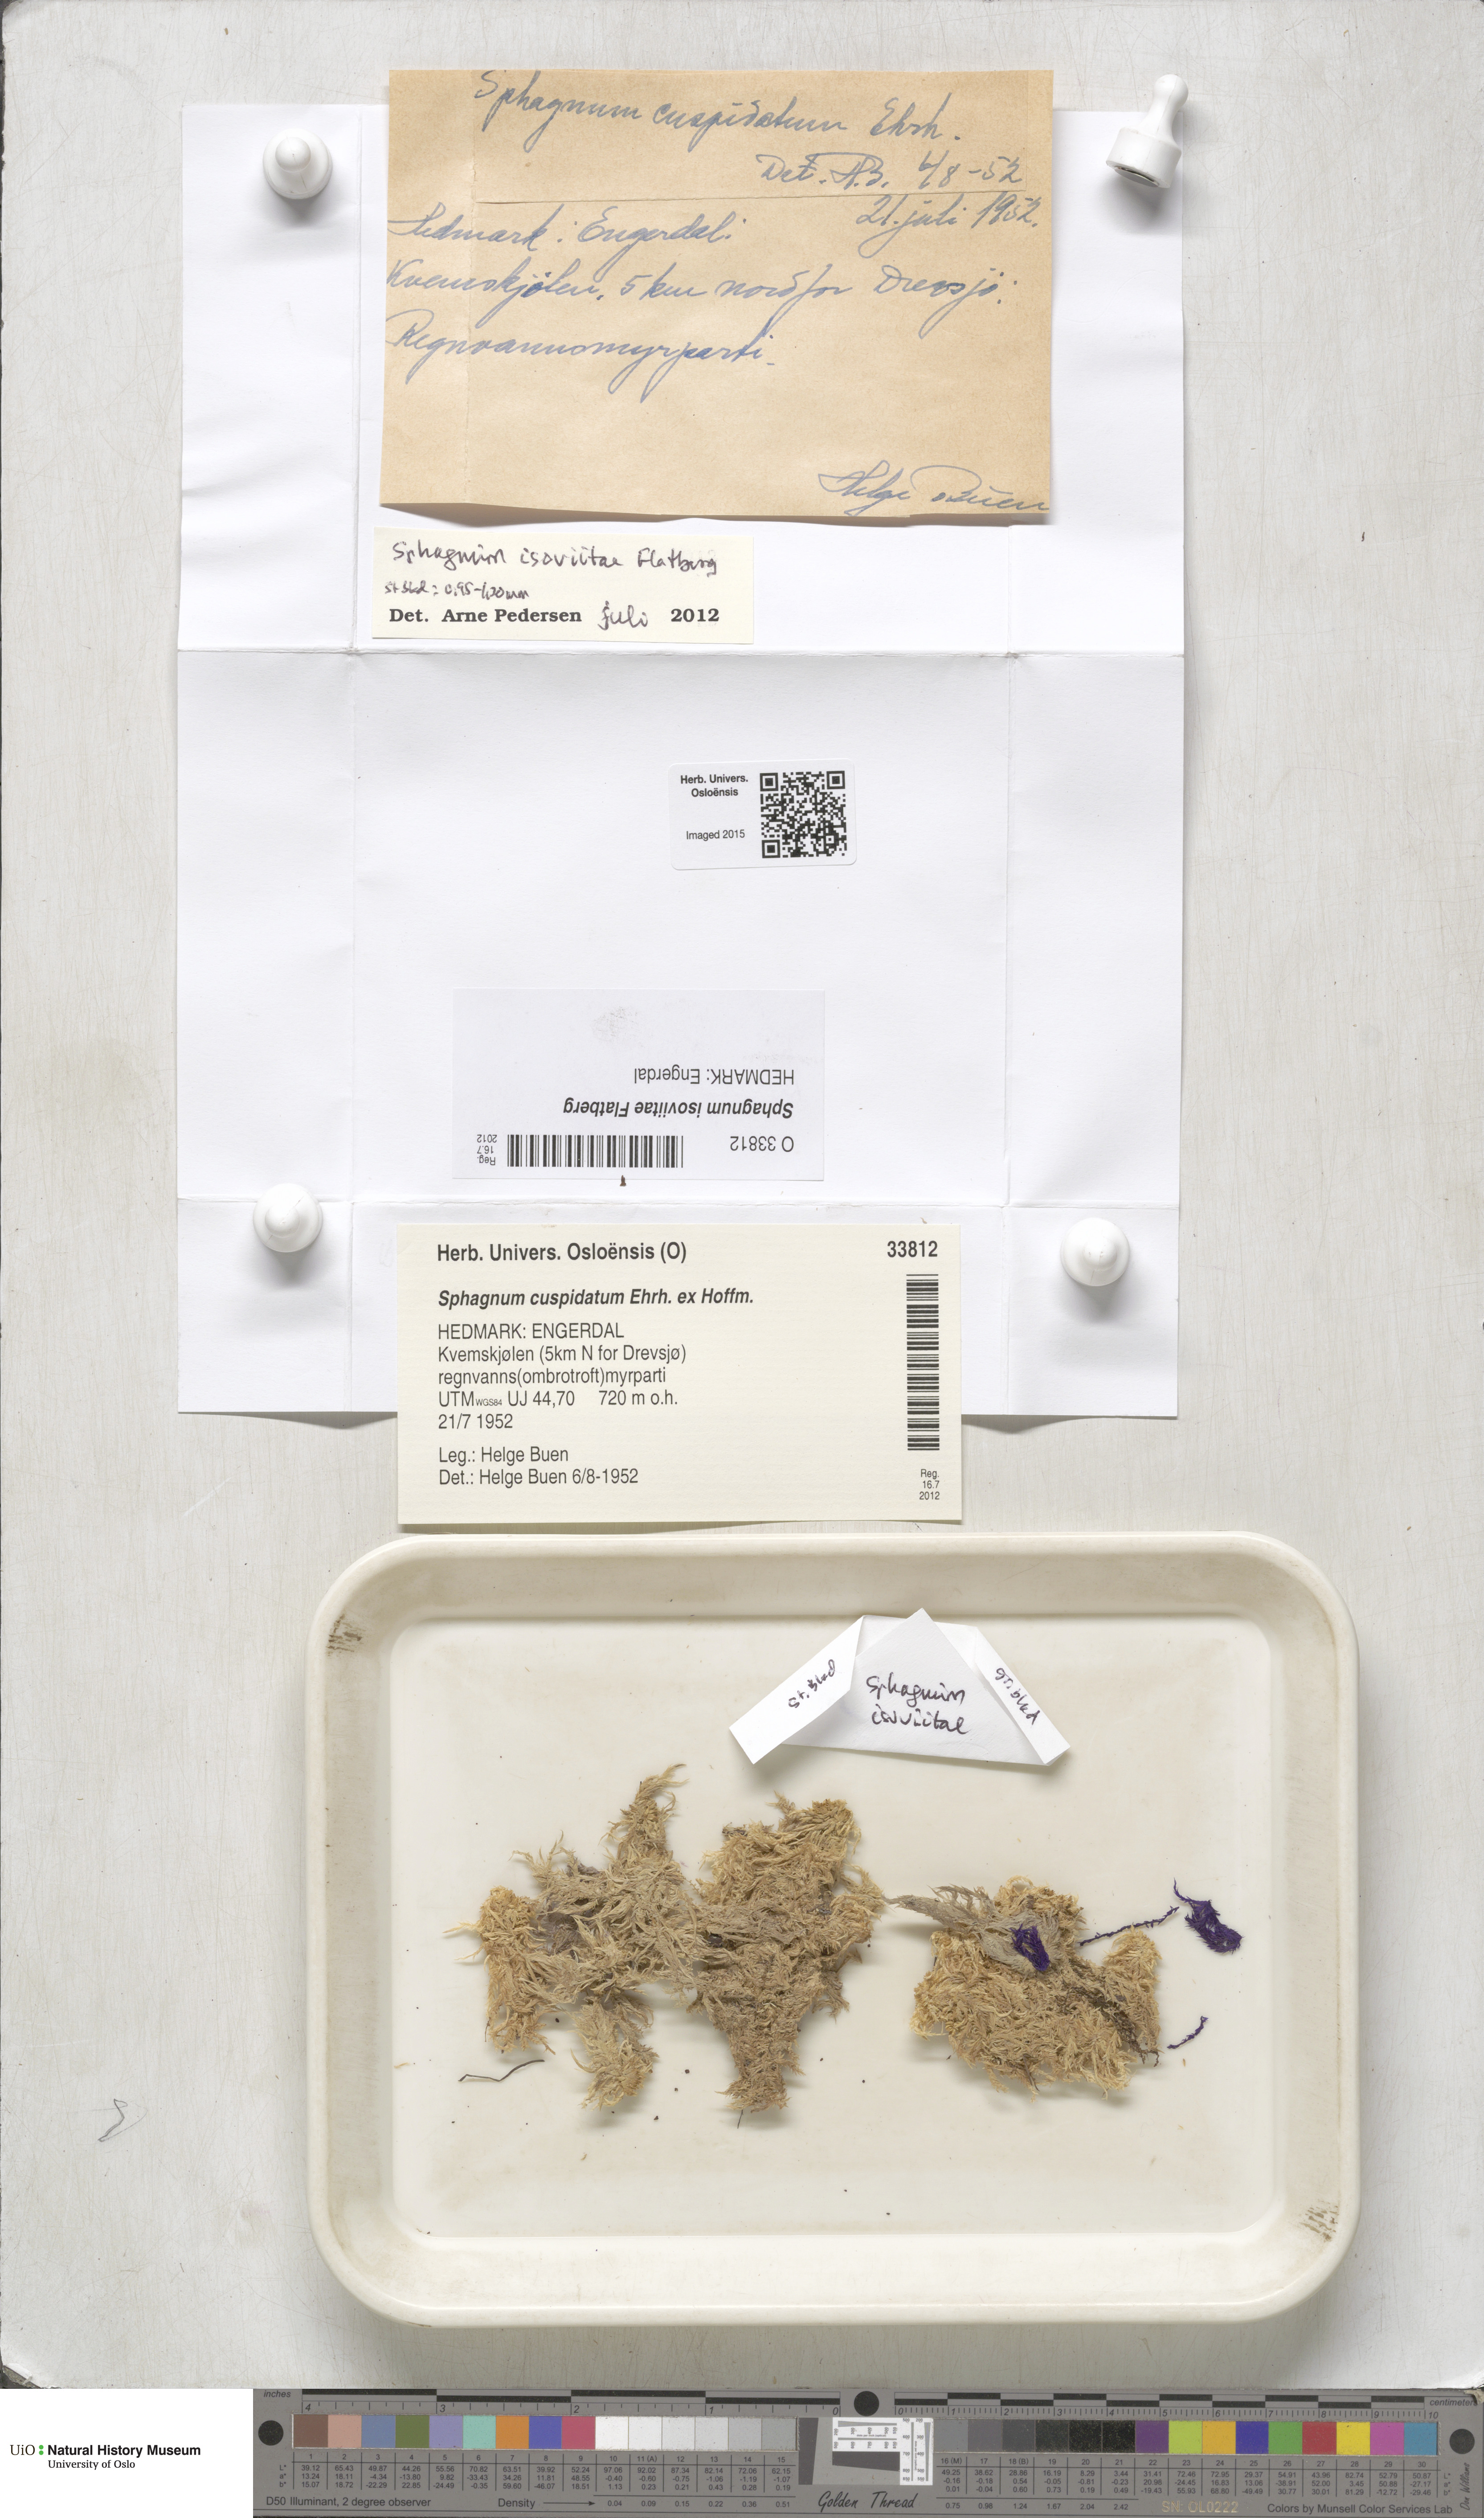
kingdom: Plantae
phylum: Bryophyta
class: Sphagnopsida
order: Sphagnales
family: Sphagnaceae
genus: Sphagnum
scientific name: Sphagnum fallax
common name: Flat-top peat moss
